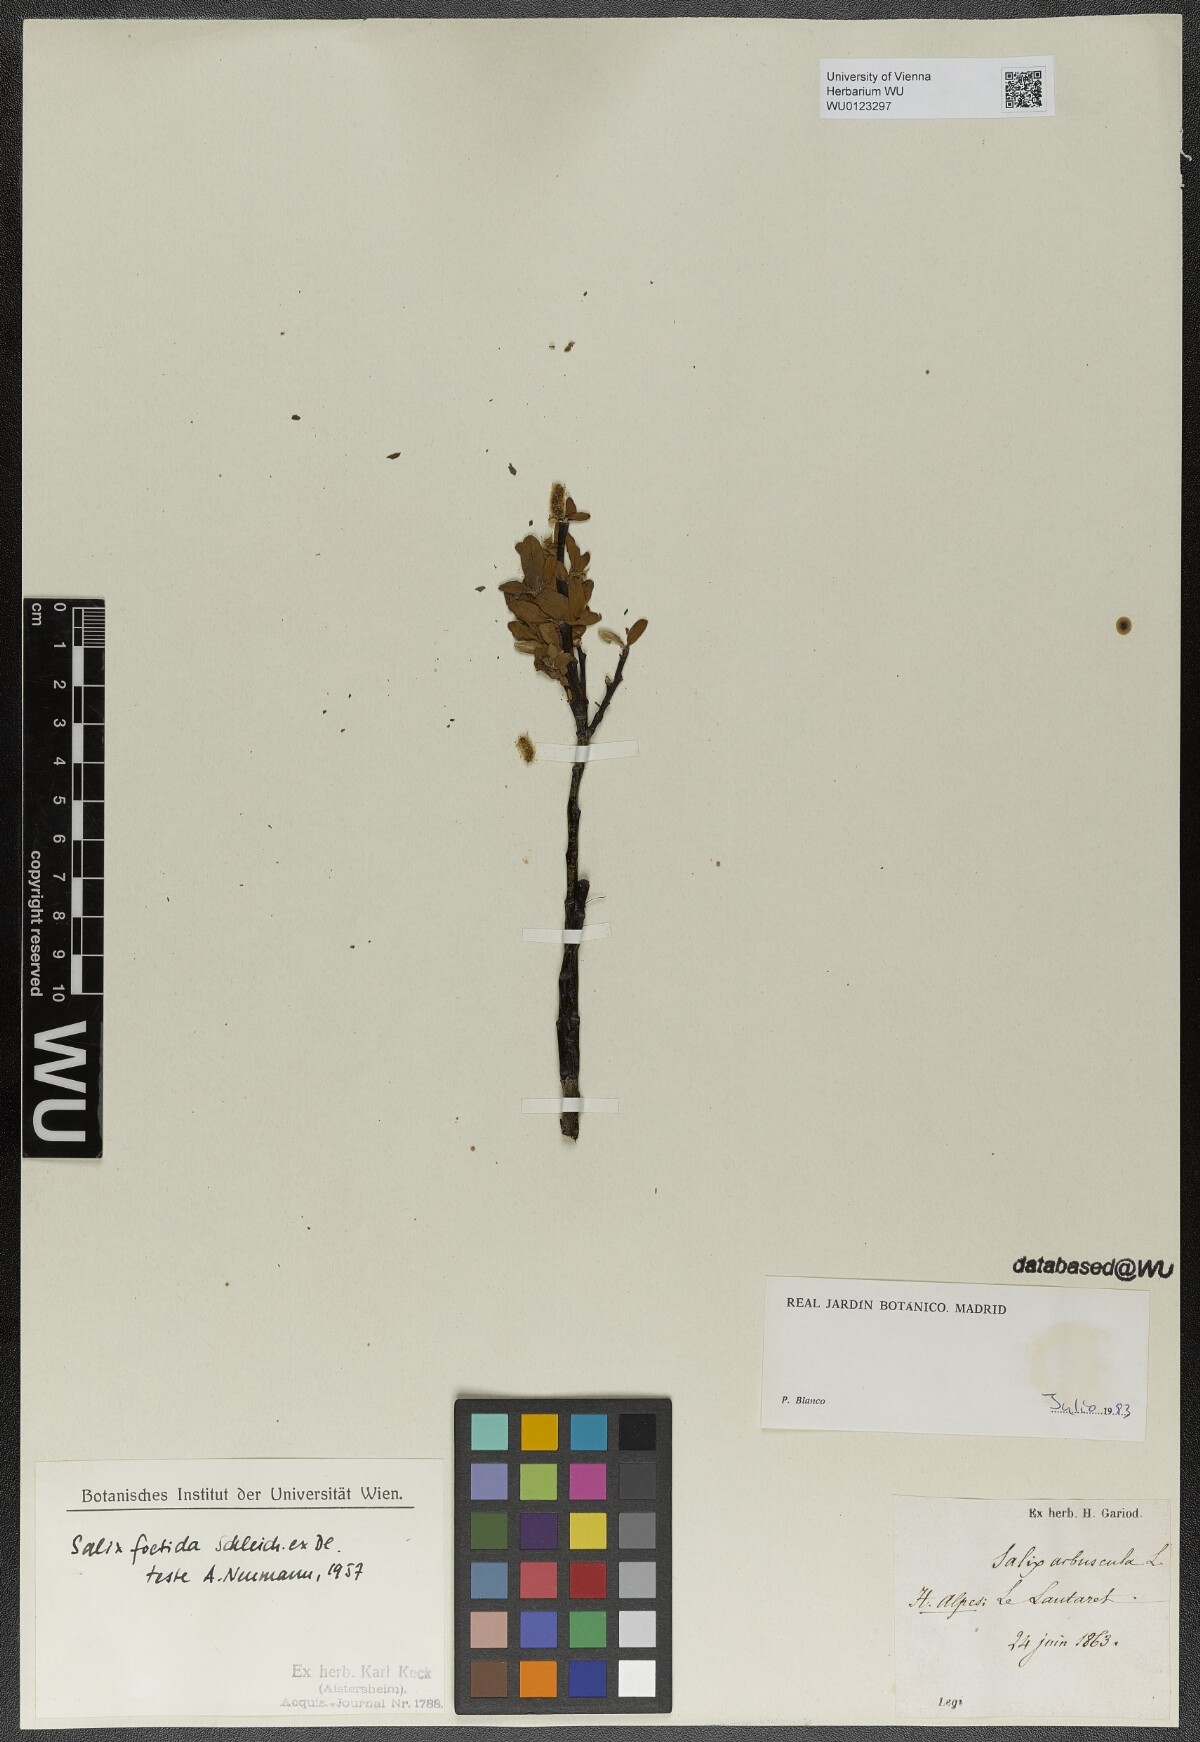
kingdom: Plantae
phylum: Tracheophyta
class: Magnoliopsida
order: Malpighiales
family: Salicaceae
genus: Salix
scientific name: Salix foetida
